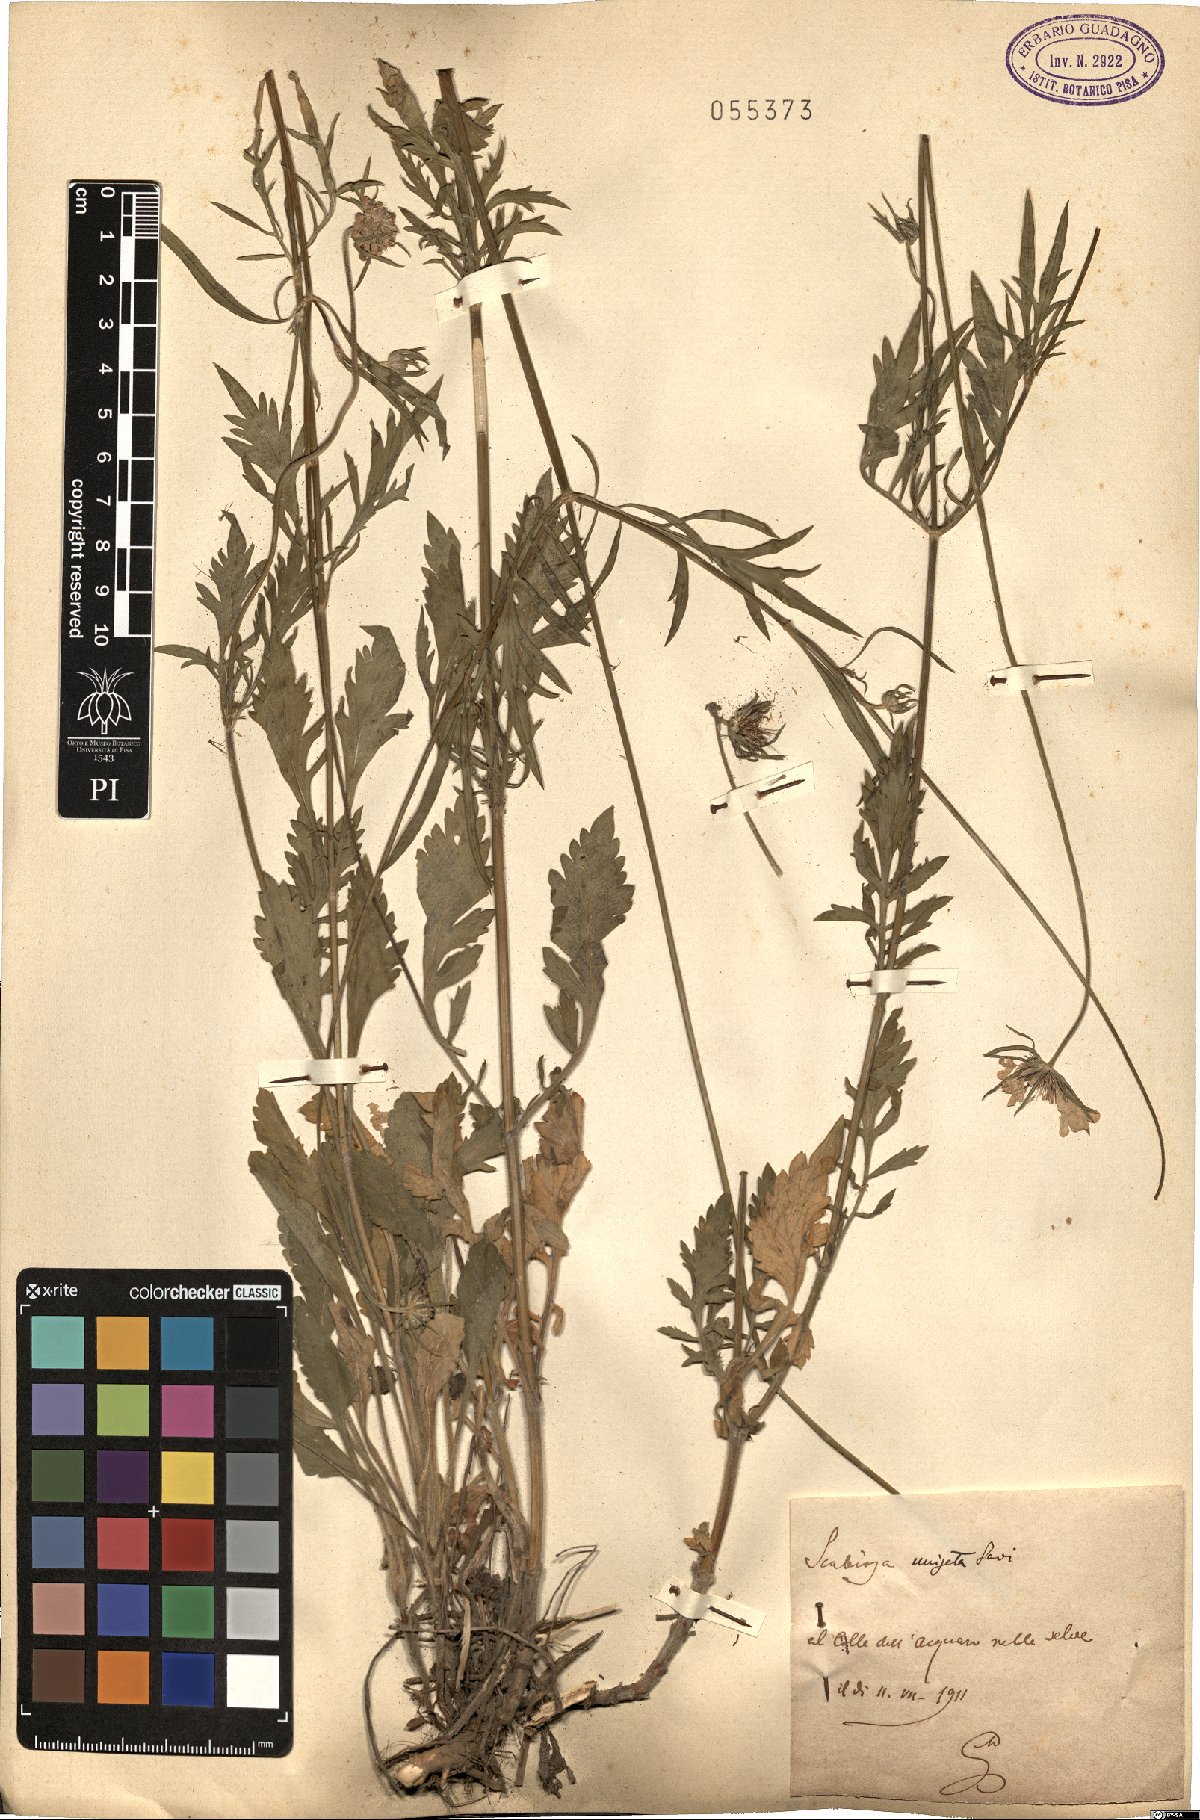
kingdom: Plantae
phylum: Tracheophyta
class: Magnoliopsida
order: Dipsacales
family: Caprifoliaceae
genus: Scabiosa
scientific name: Scabiosa columbaria
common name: Small scabious
